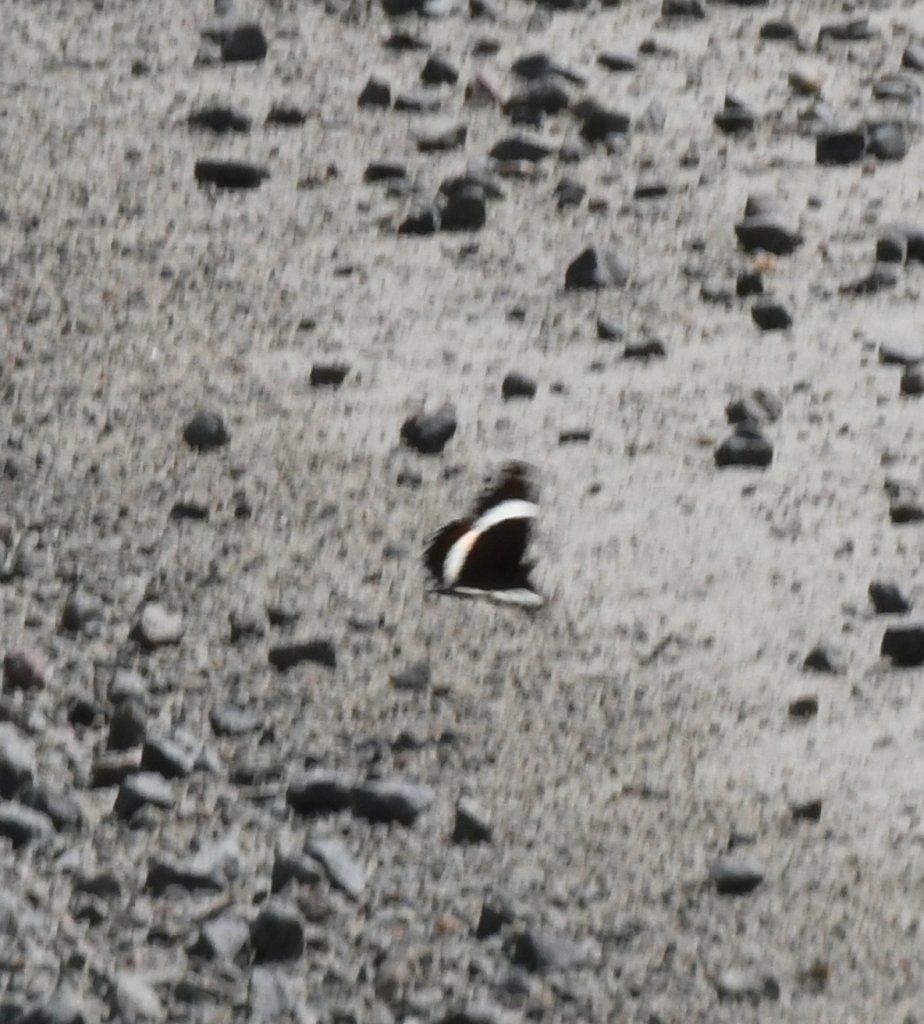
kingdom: Animalia
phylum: Arthropoda
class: Insecta
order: Lepidoptera
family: Nymphalidae
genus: Limenitis
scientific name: Limenitis arthemis
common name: Red-spotted Admiral
